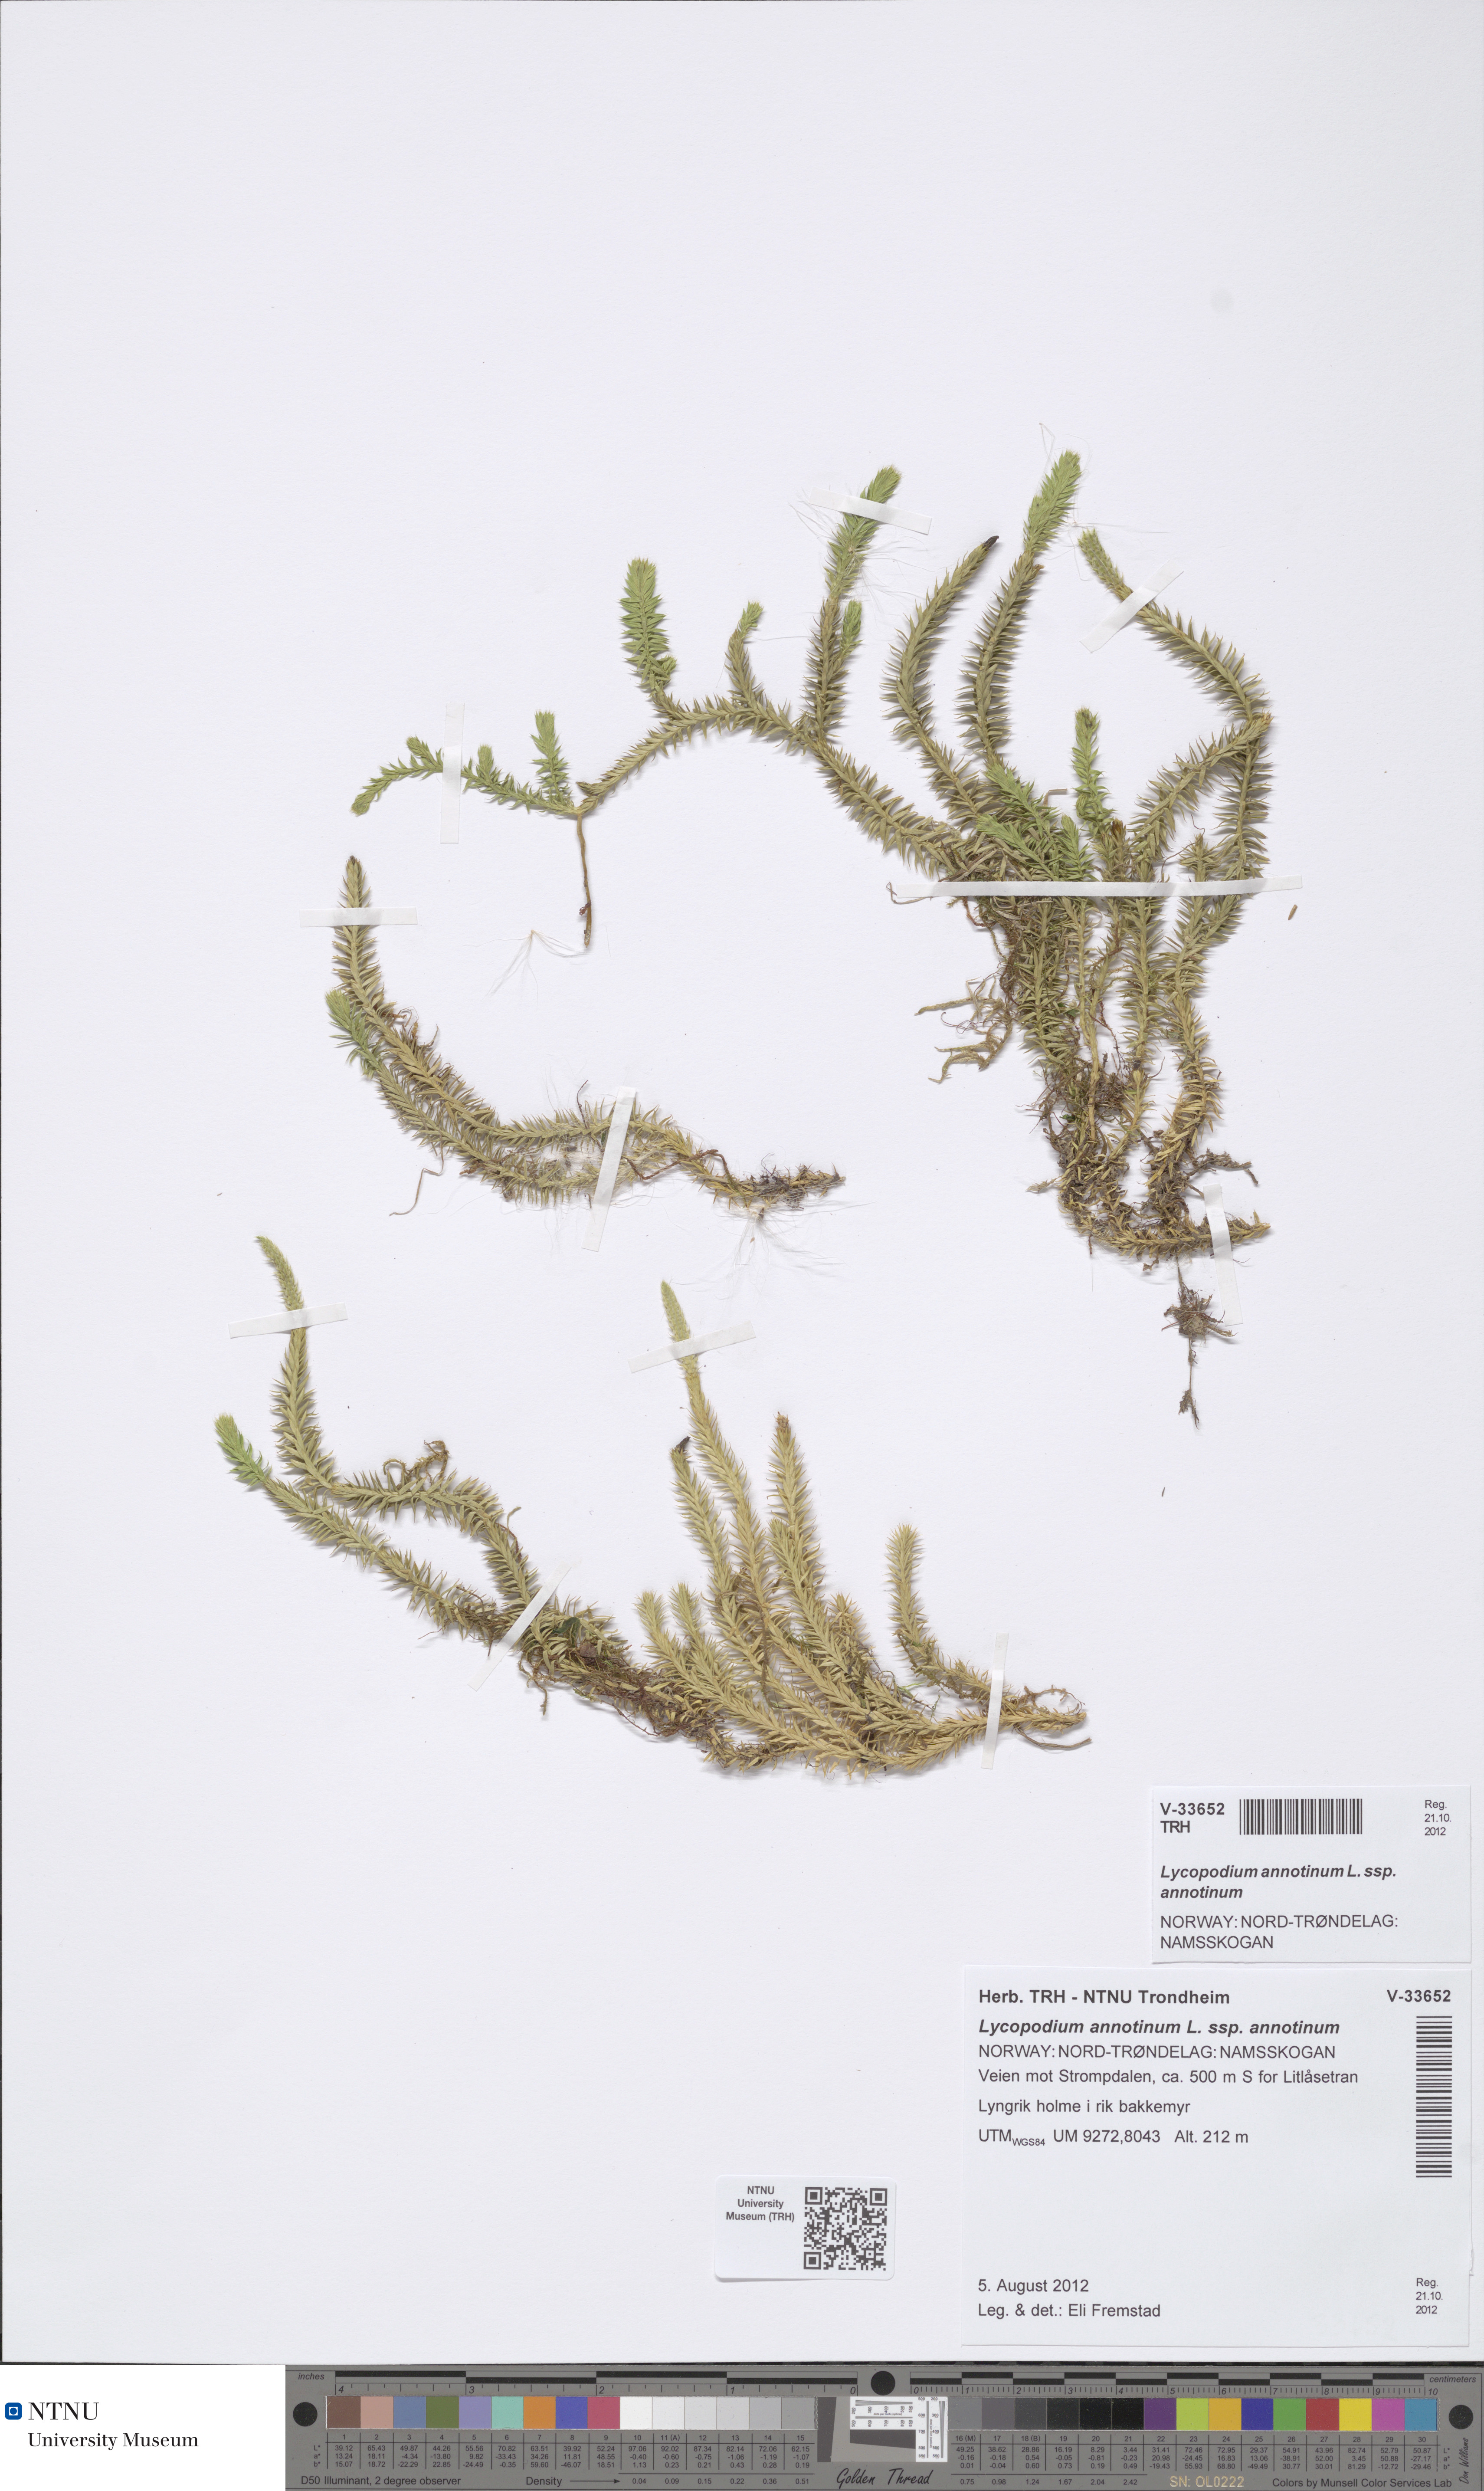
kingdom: Plantae
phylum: Tracheophyta
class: Lycopodiopsida
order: Lycopodiales
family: Lycopodiaceae
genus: Spinulum
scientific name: Spinulum annotinum
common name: Interrupted club-moss
